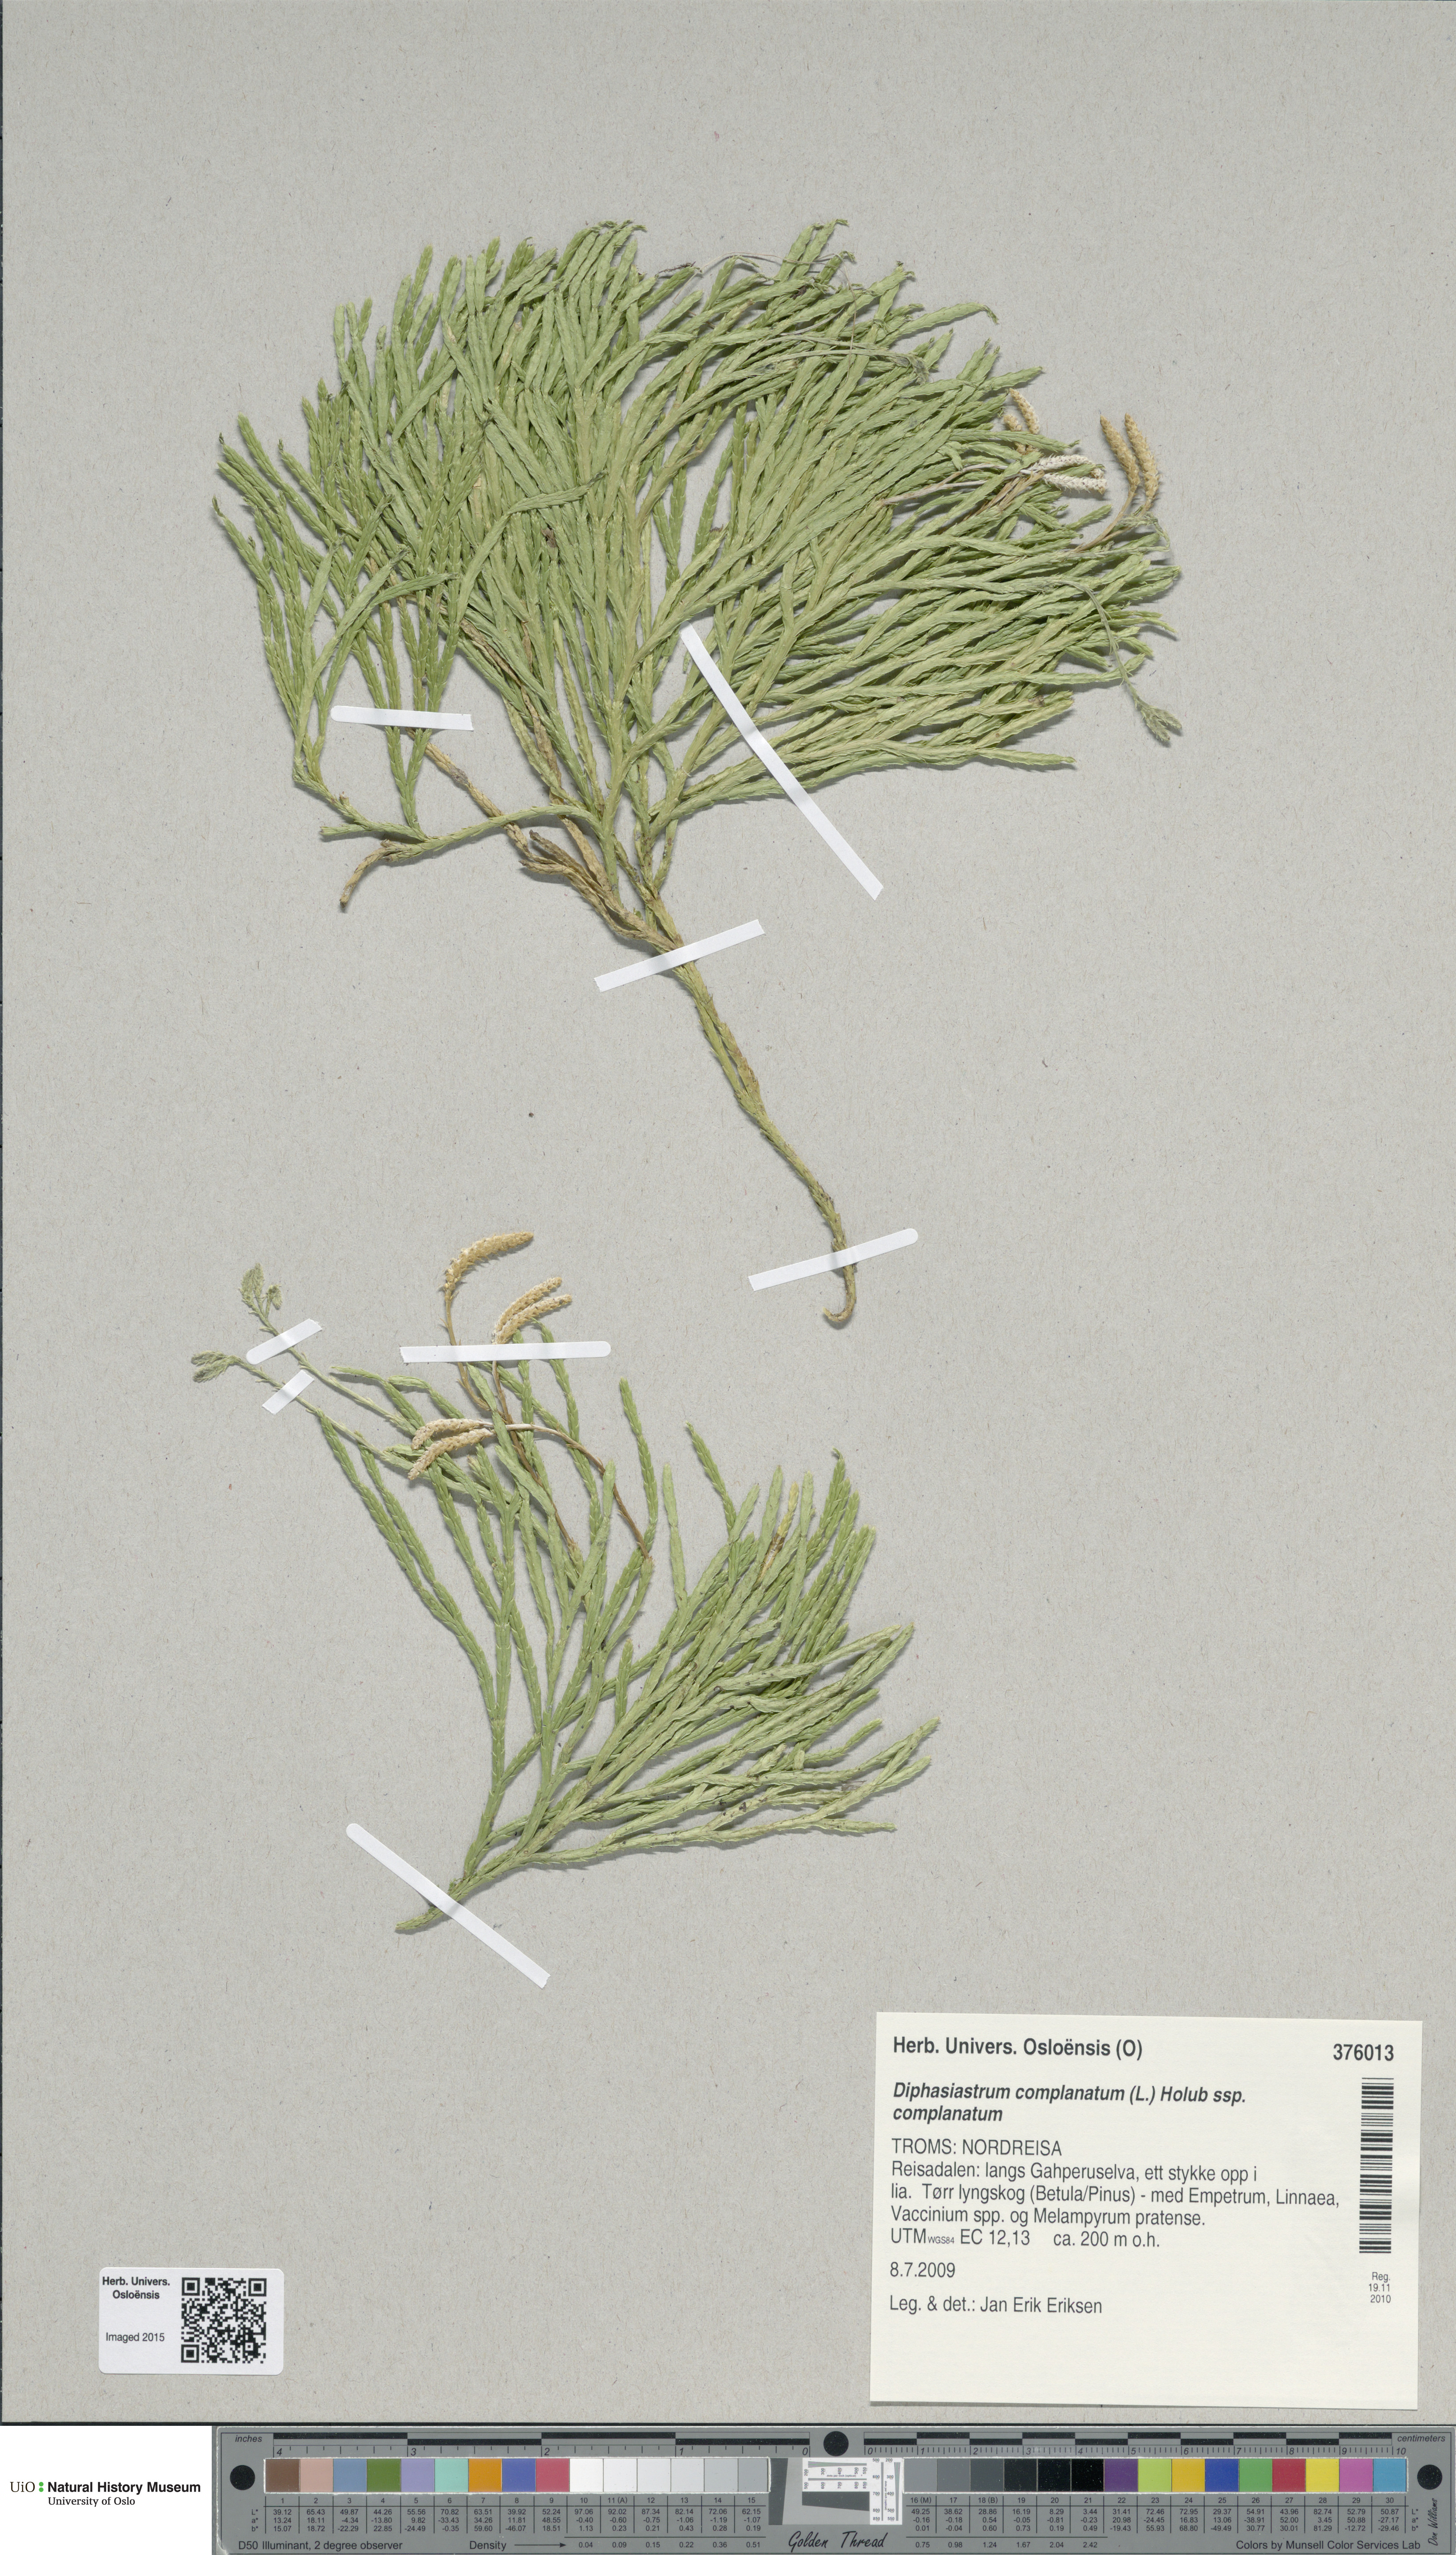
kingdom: Plantae
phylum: Tracheophyta
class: Lycopodiopsida
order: Lycopodiales
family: Lycopodiaceae
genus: Diphasiastrum
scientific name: Diphasiastrum complanatum
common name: Northern running-pine
